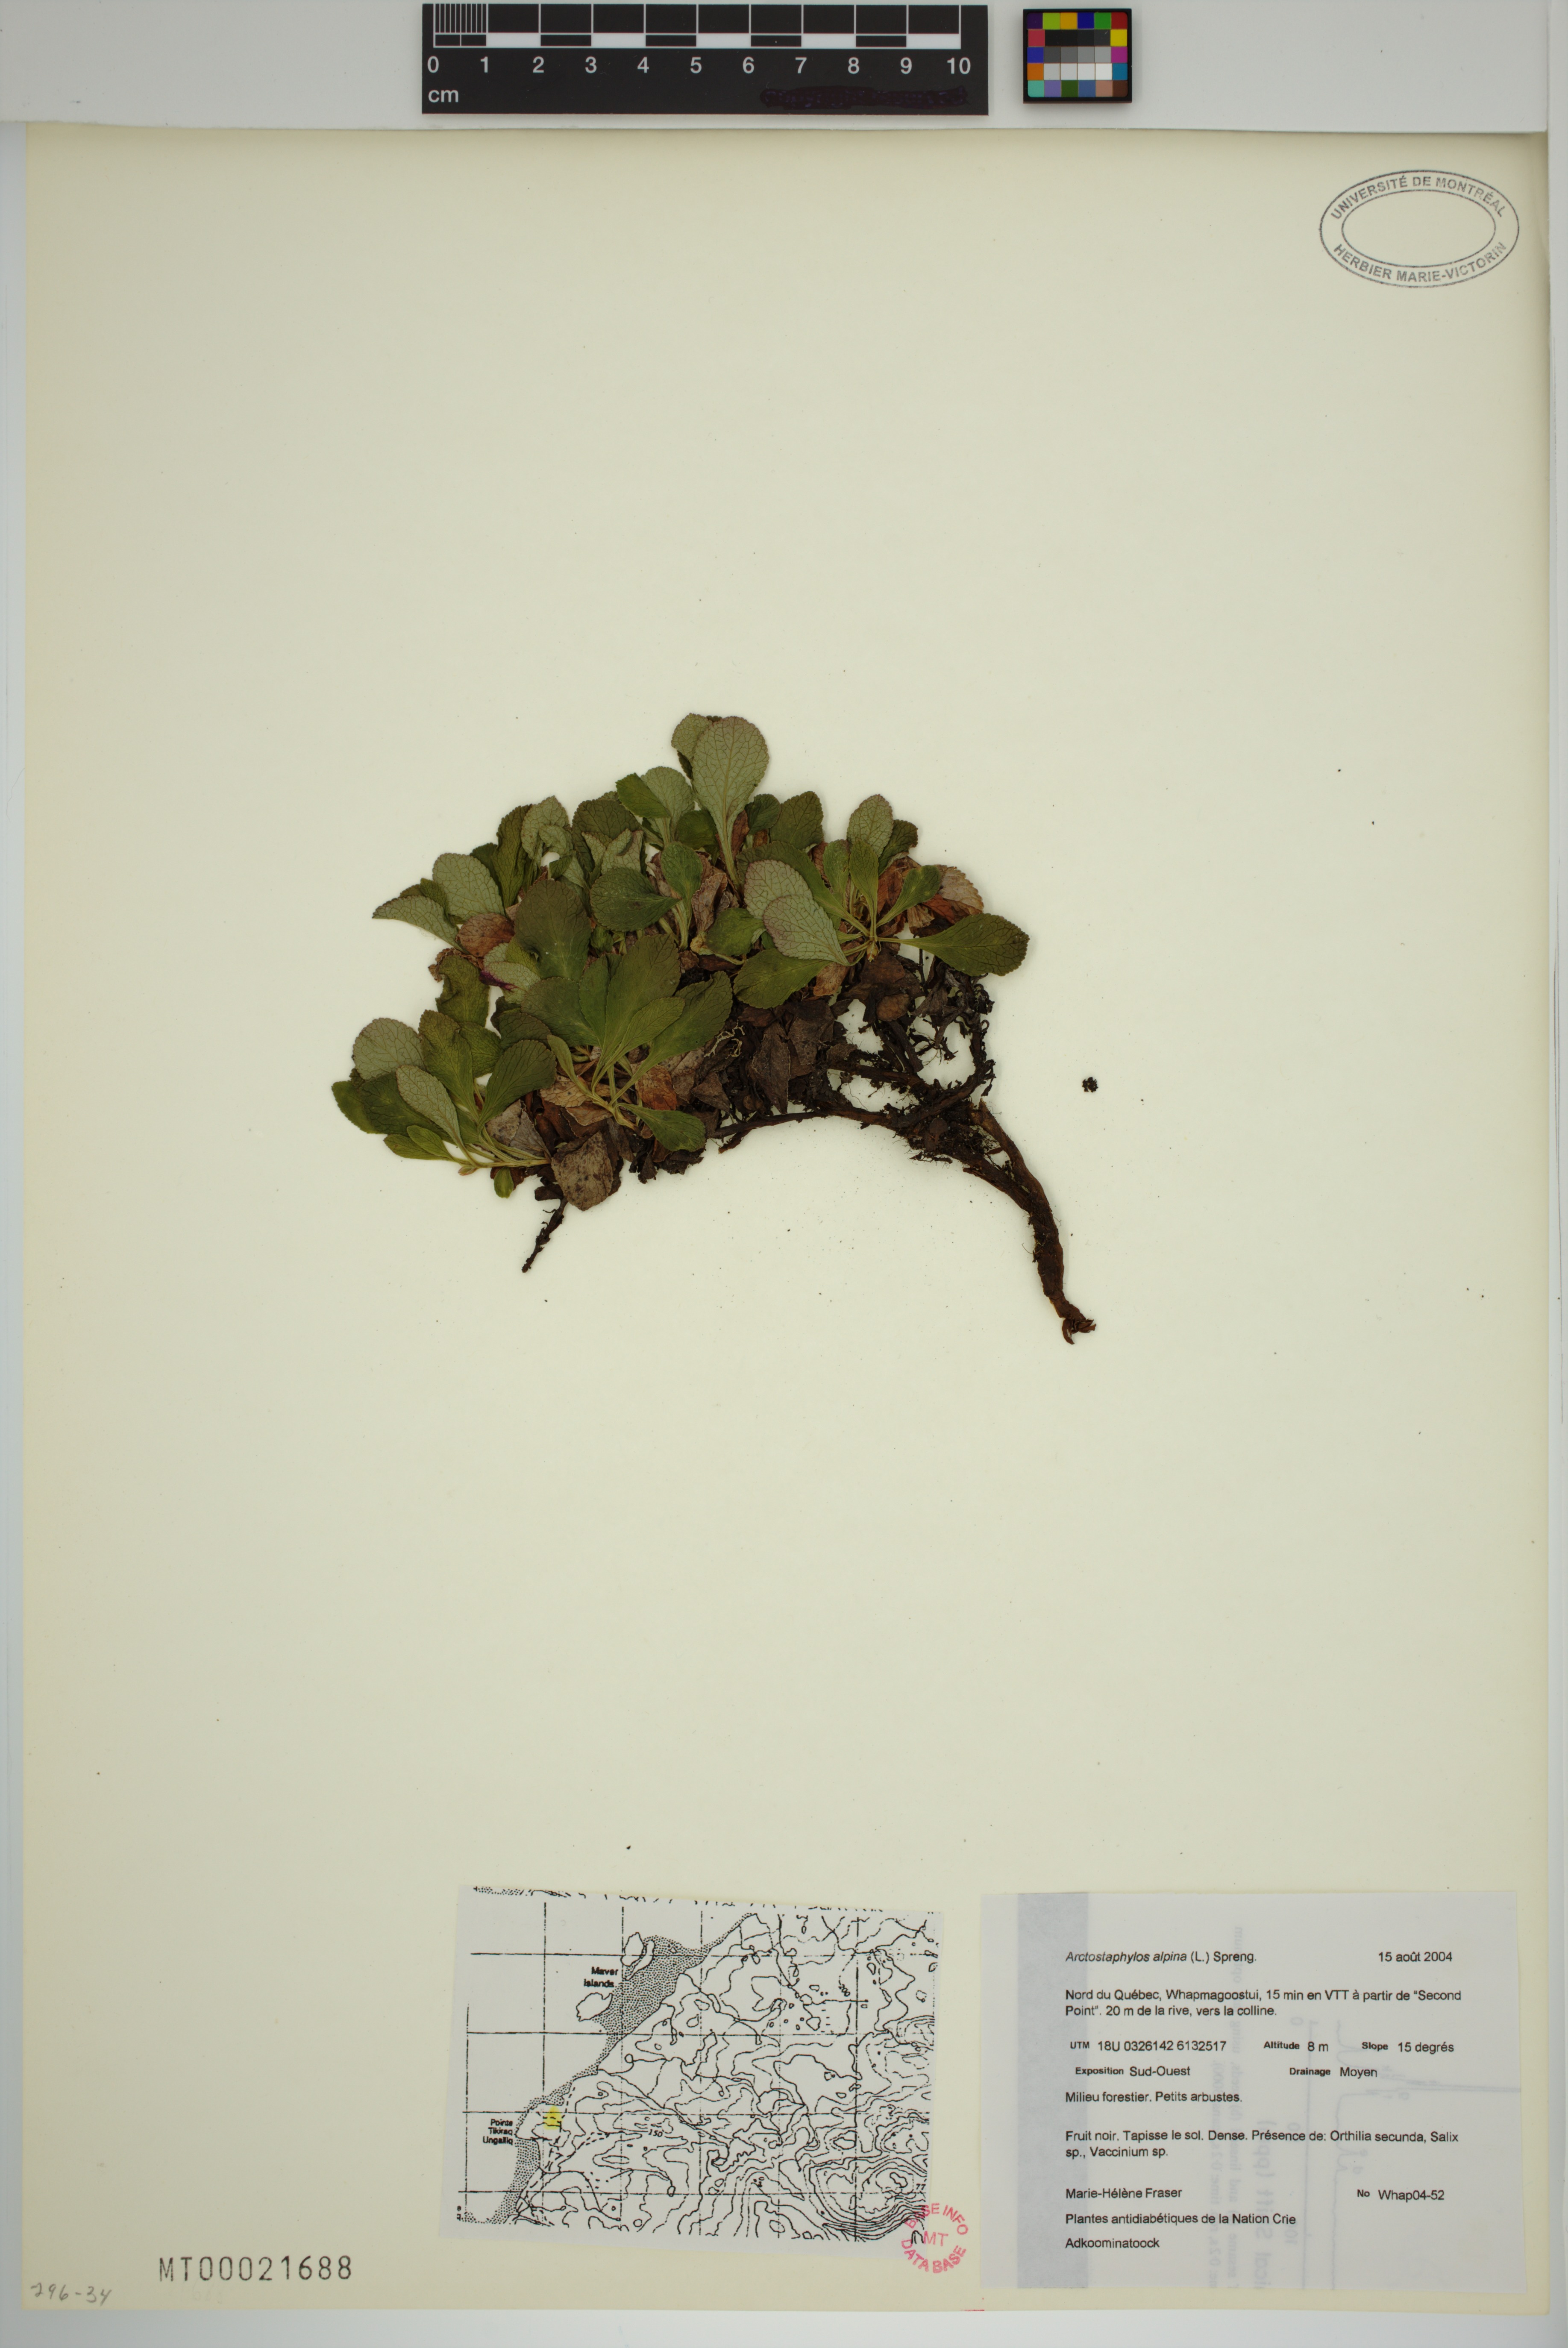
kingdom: Plantae
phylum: Tracheophyta
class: Magnoliopsida
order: Ericales
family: Ericaceae
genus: Arctostaphylos
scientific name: Arctostaphylos alpinus
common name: Alpine bearberry
